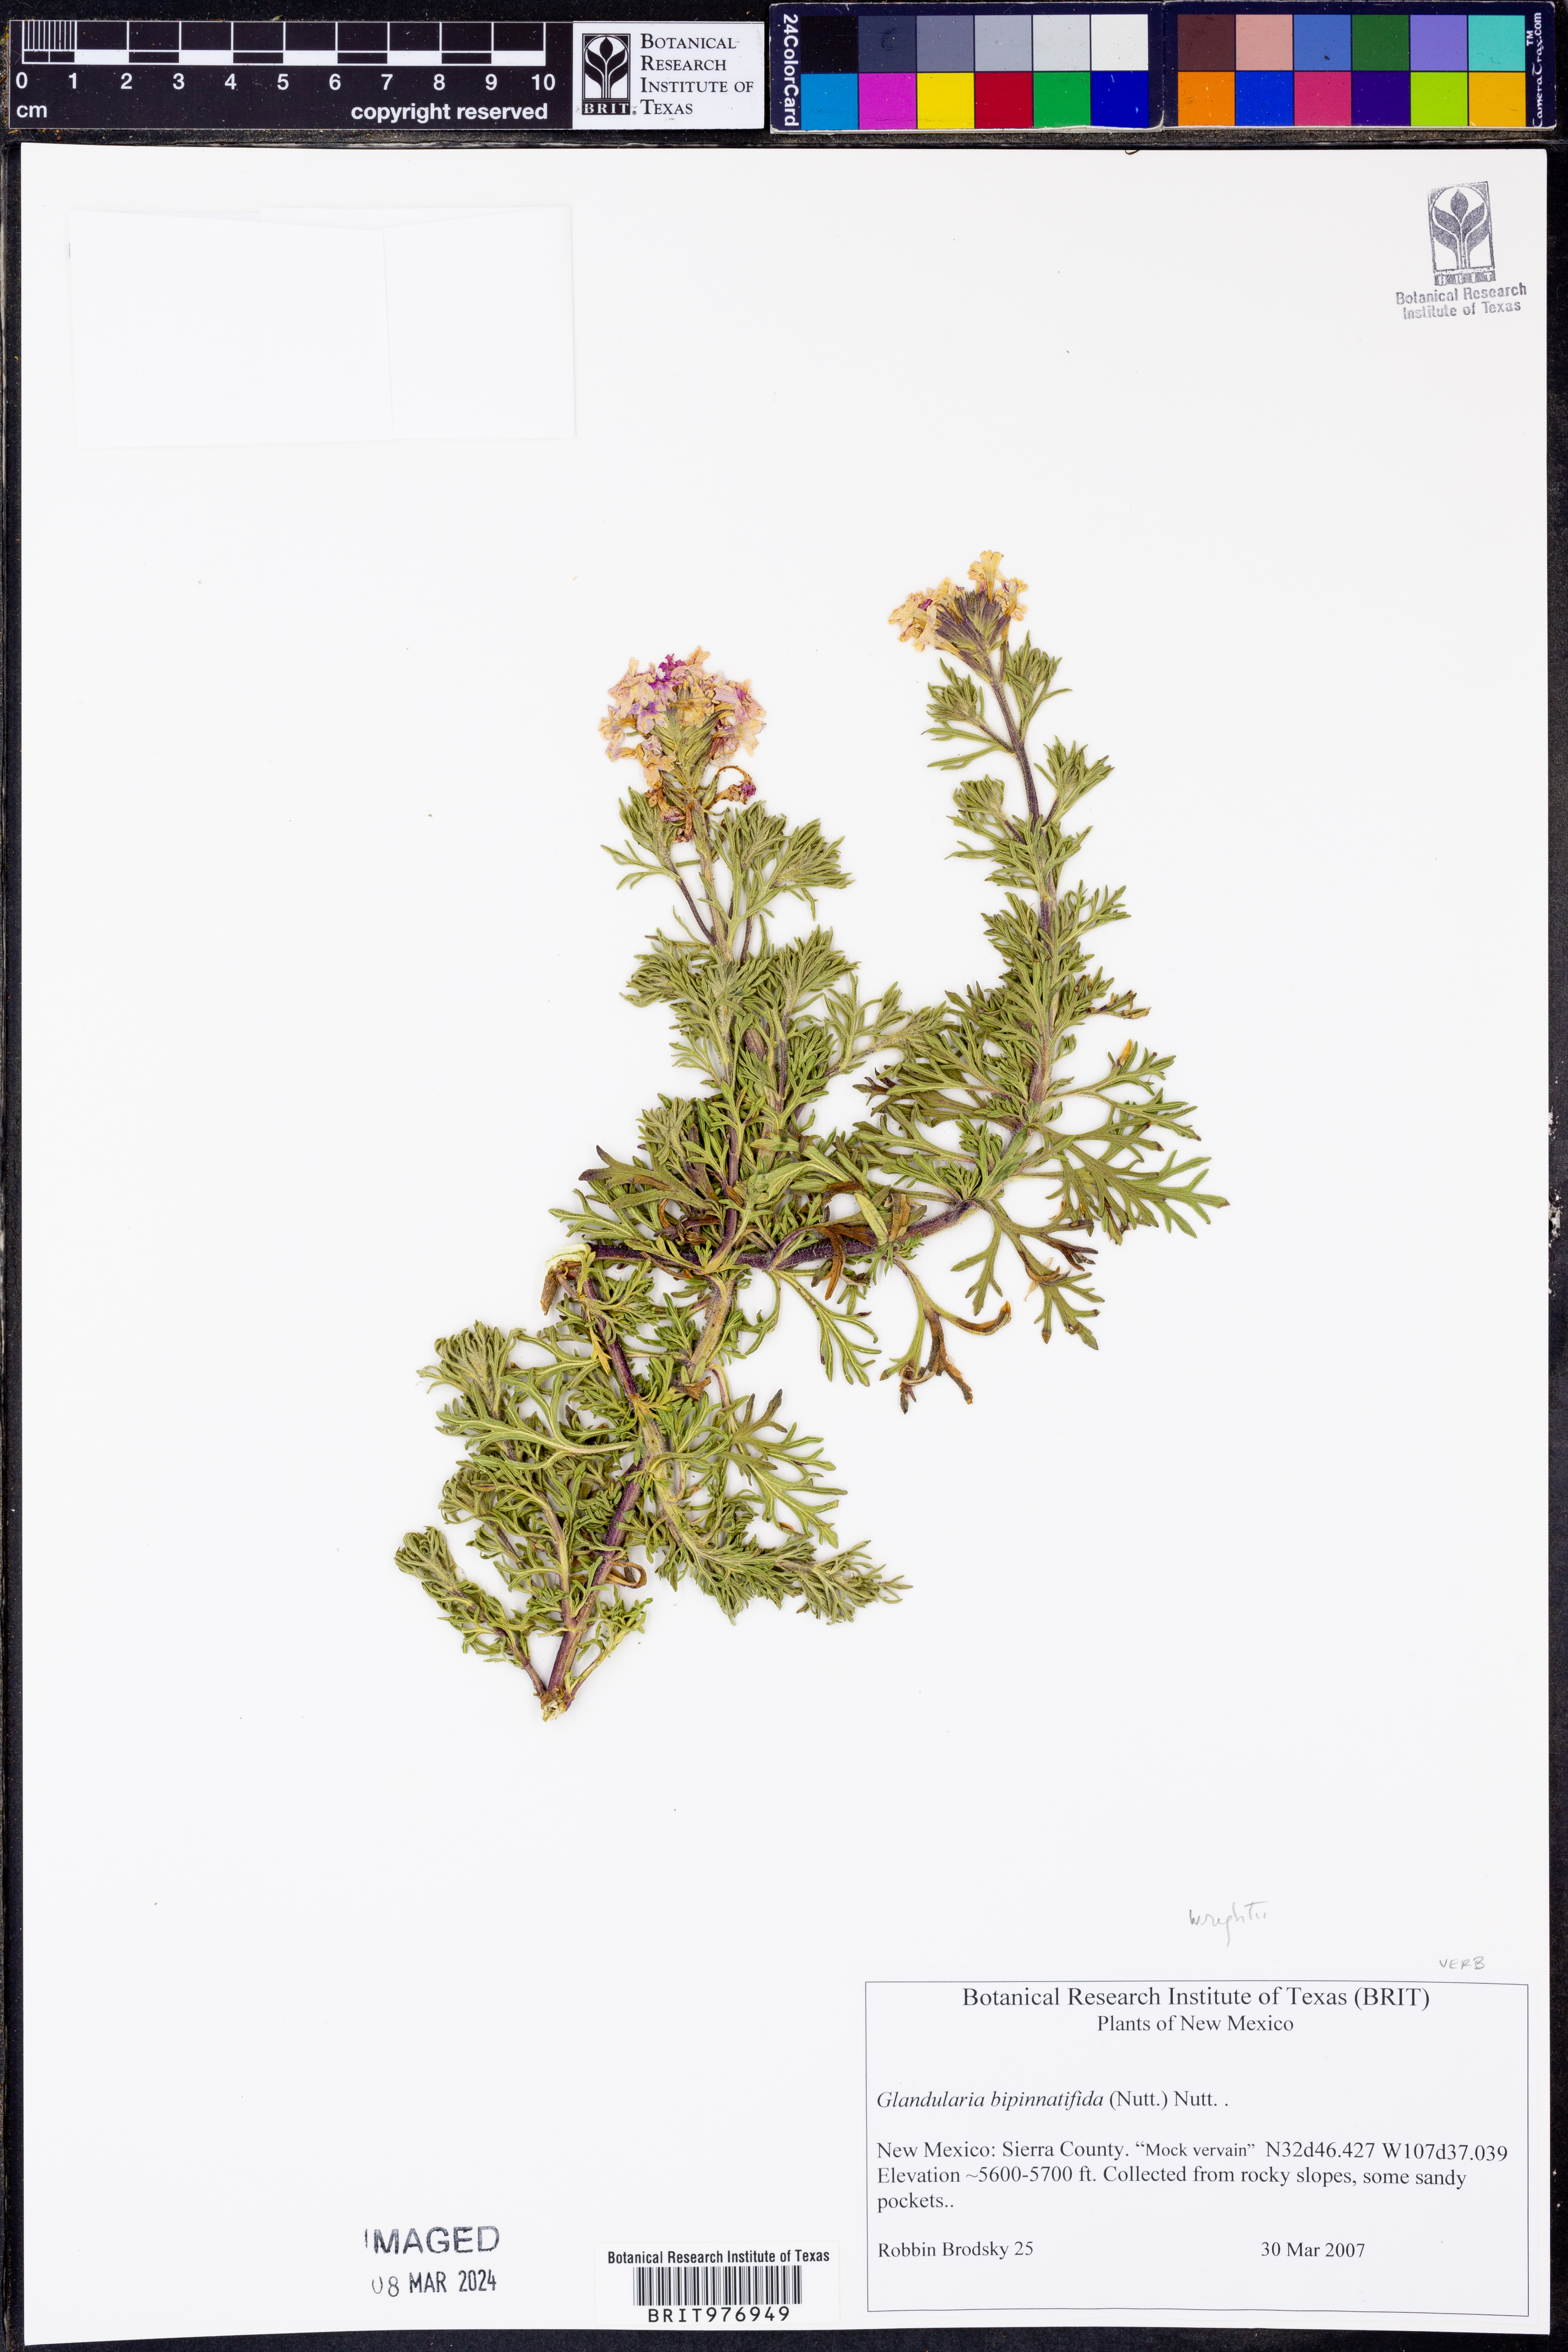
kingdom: Plantae
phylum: Tracheophyta
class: Magnoliopsida
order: Lamiales
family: Verbenaceae
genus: Verbena
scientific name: Verbena bipinnatifida
